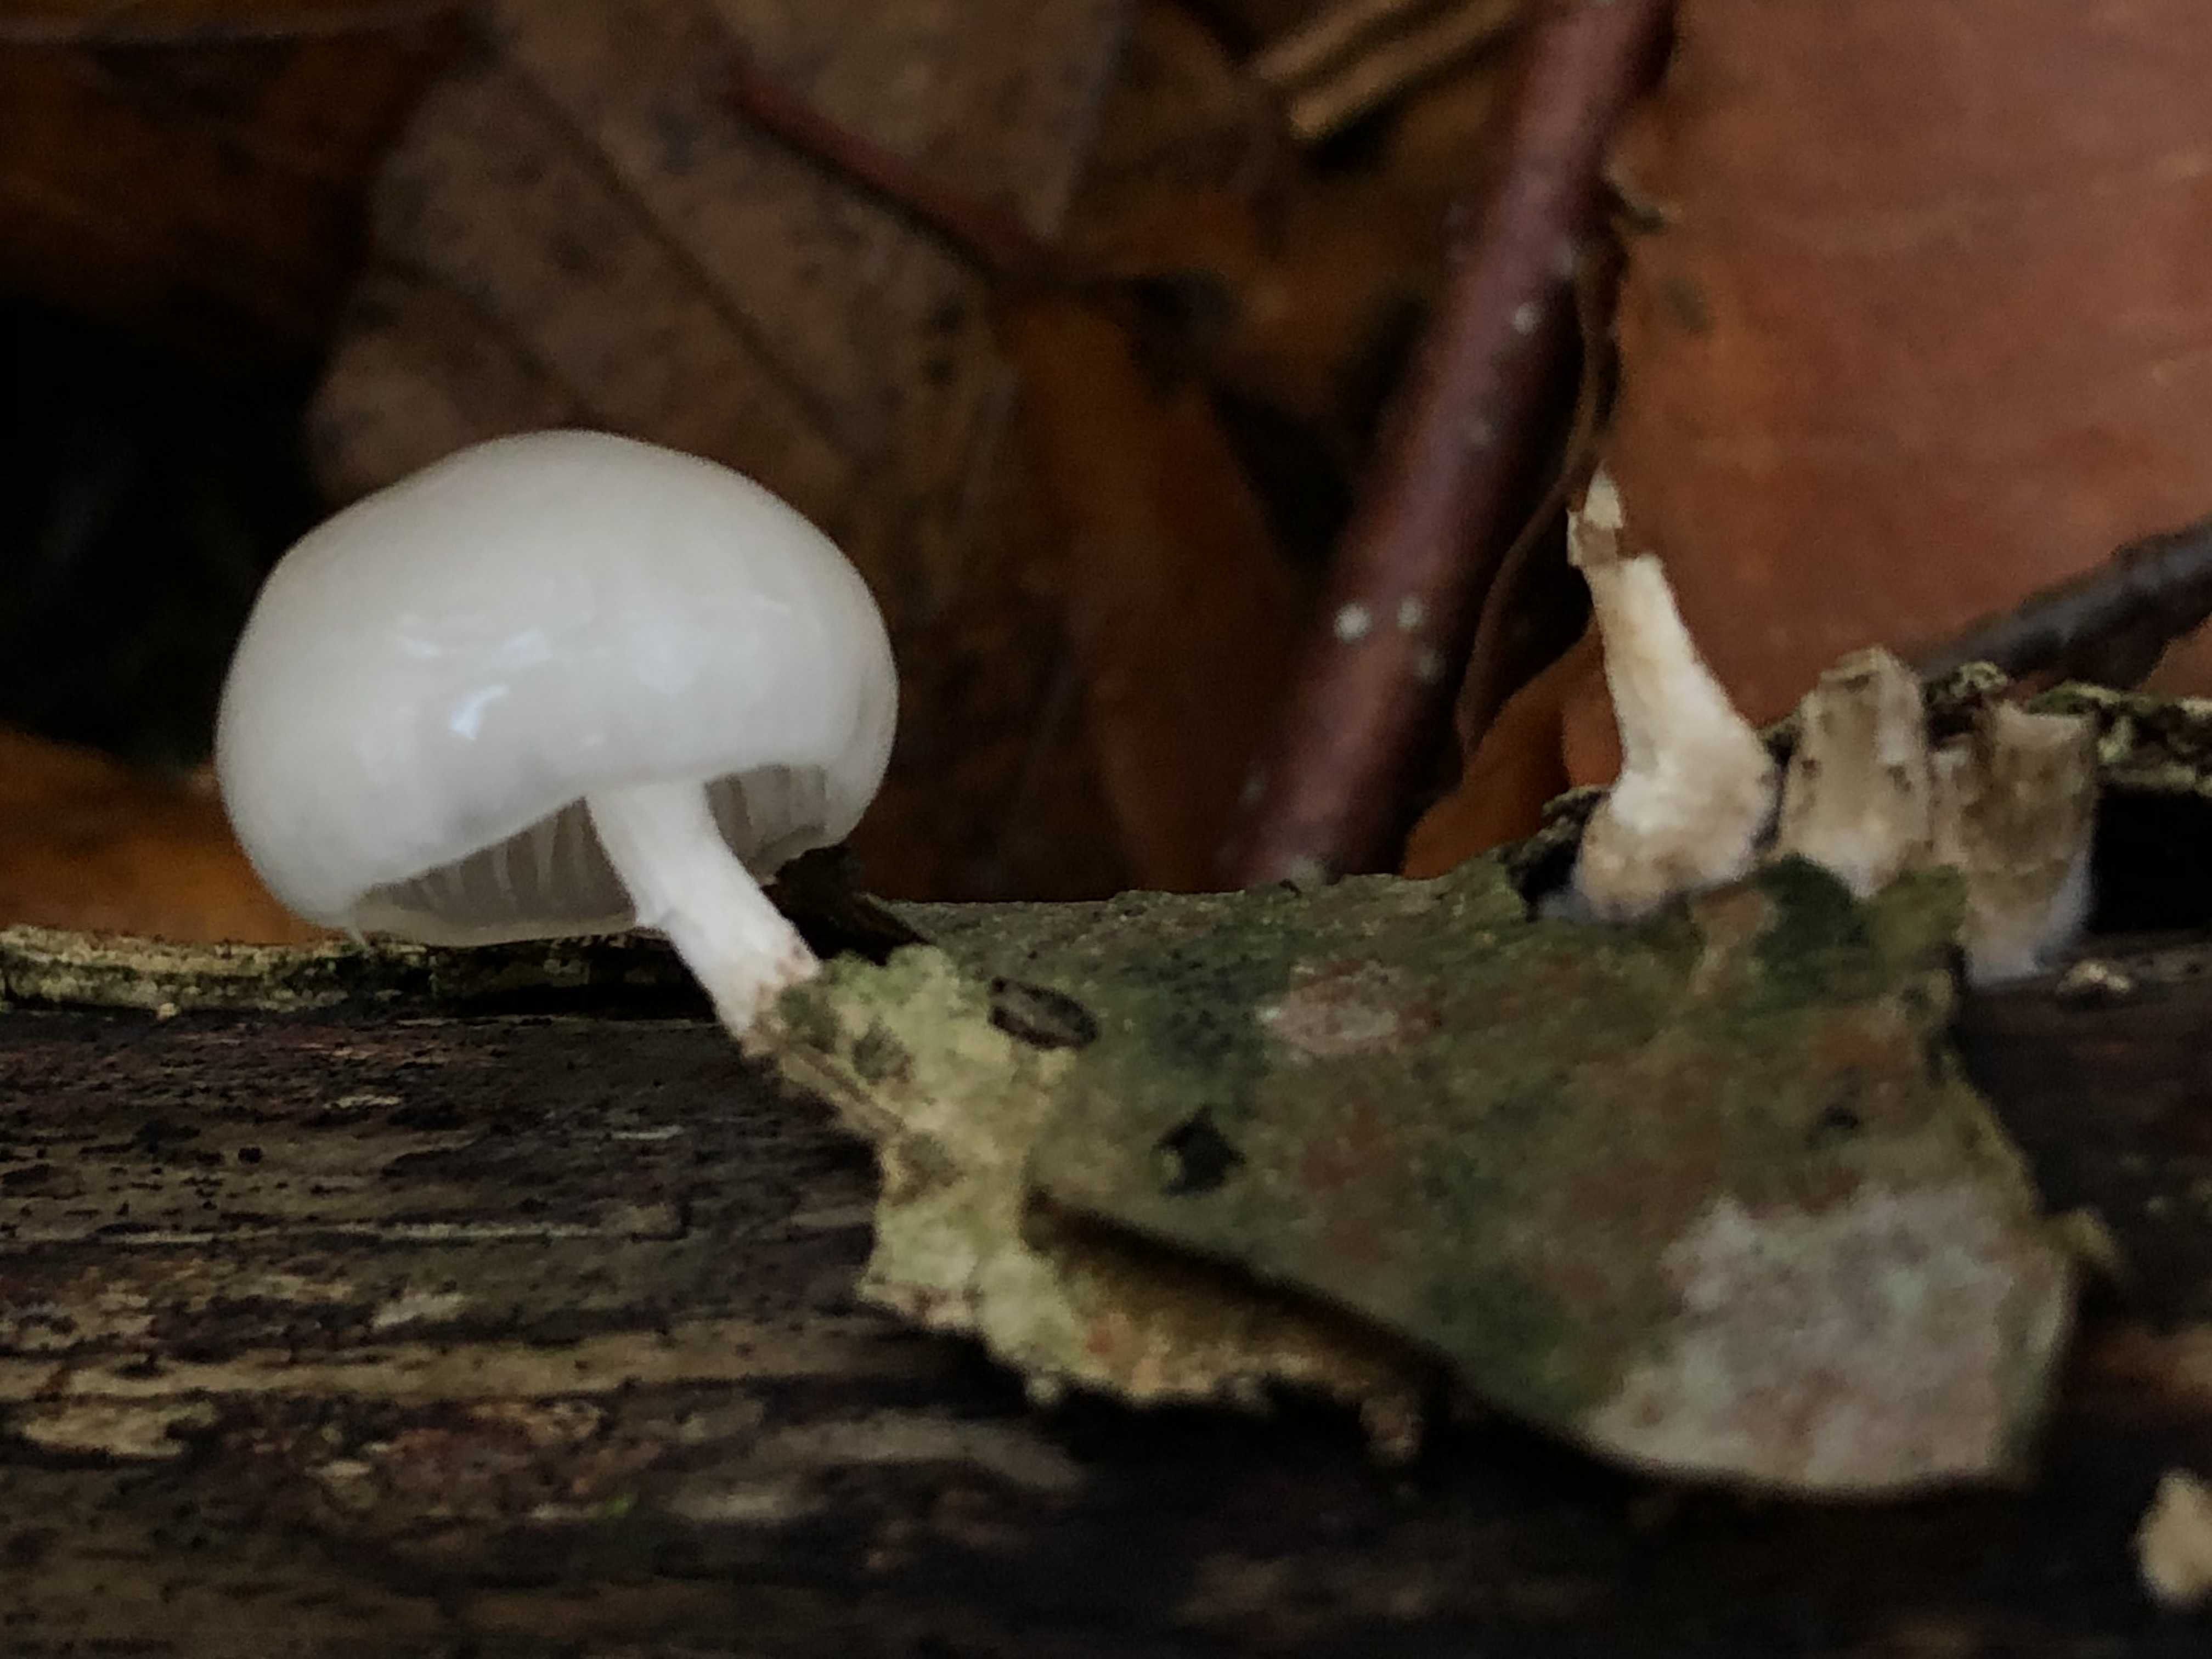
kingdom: Fungi
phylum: Basidiomycota
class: Agaricomycetes
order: Agaricales
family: Physalacriaceae
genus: Mucidula
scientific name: Mucidula mucida
